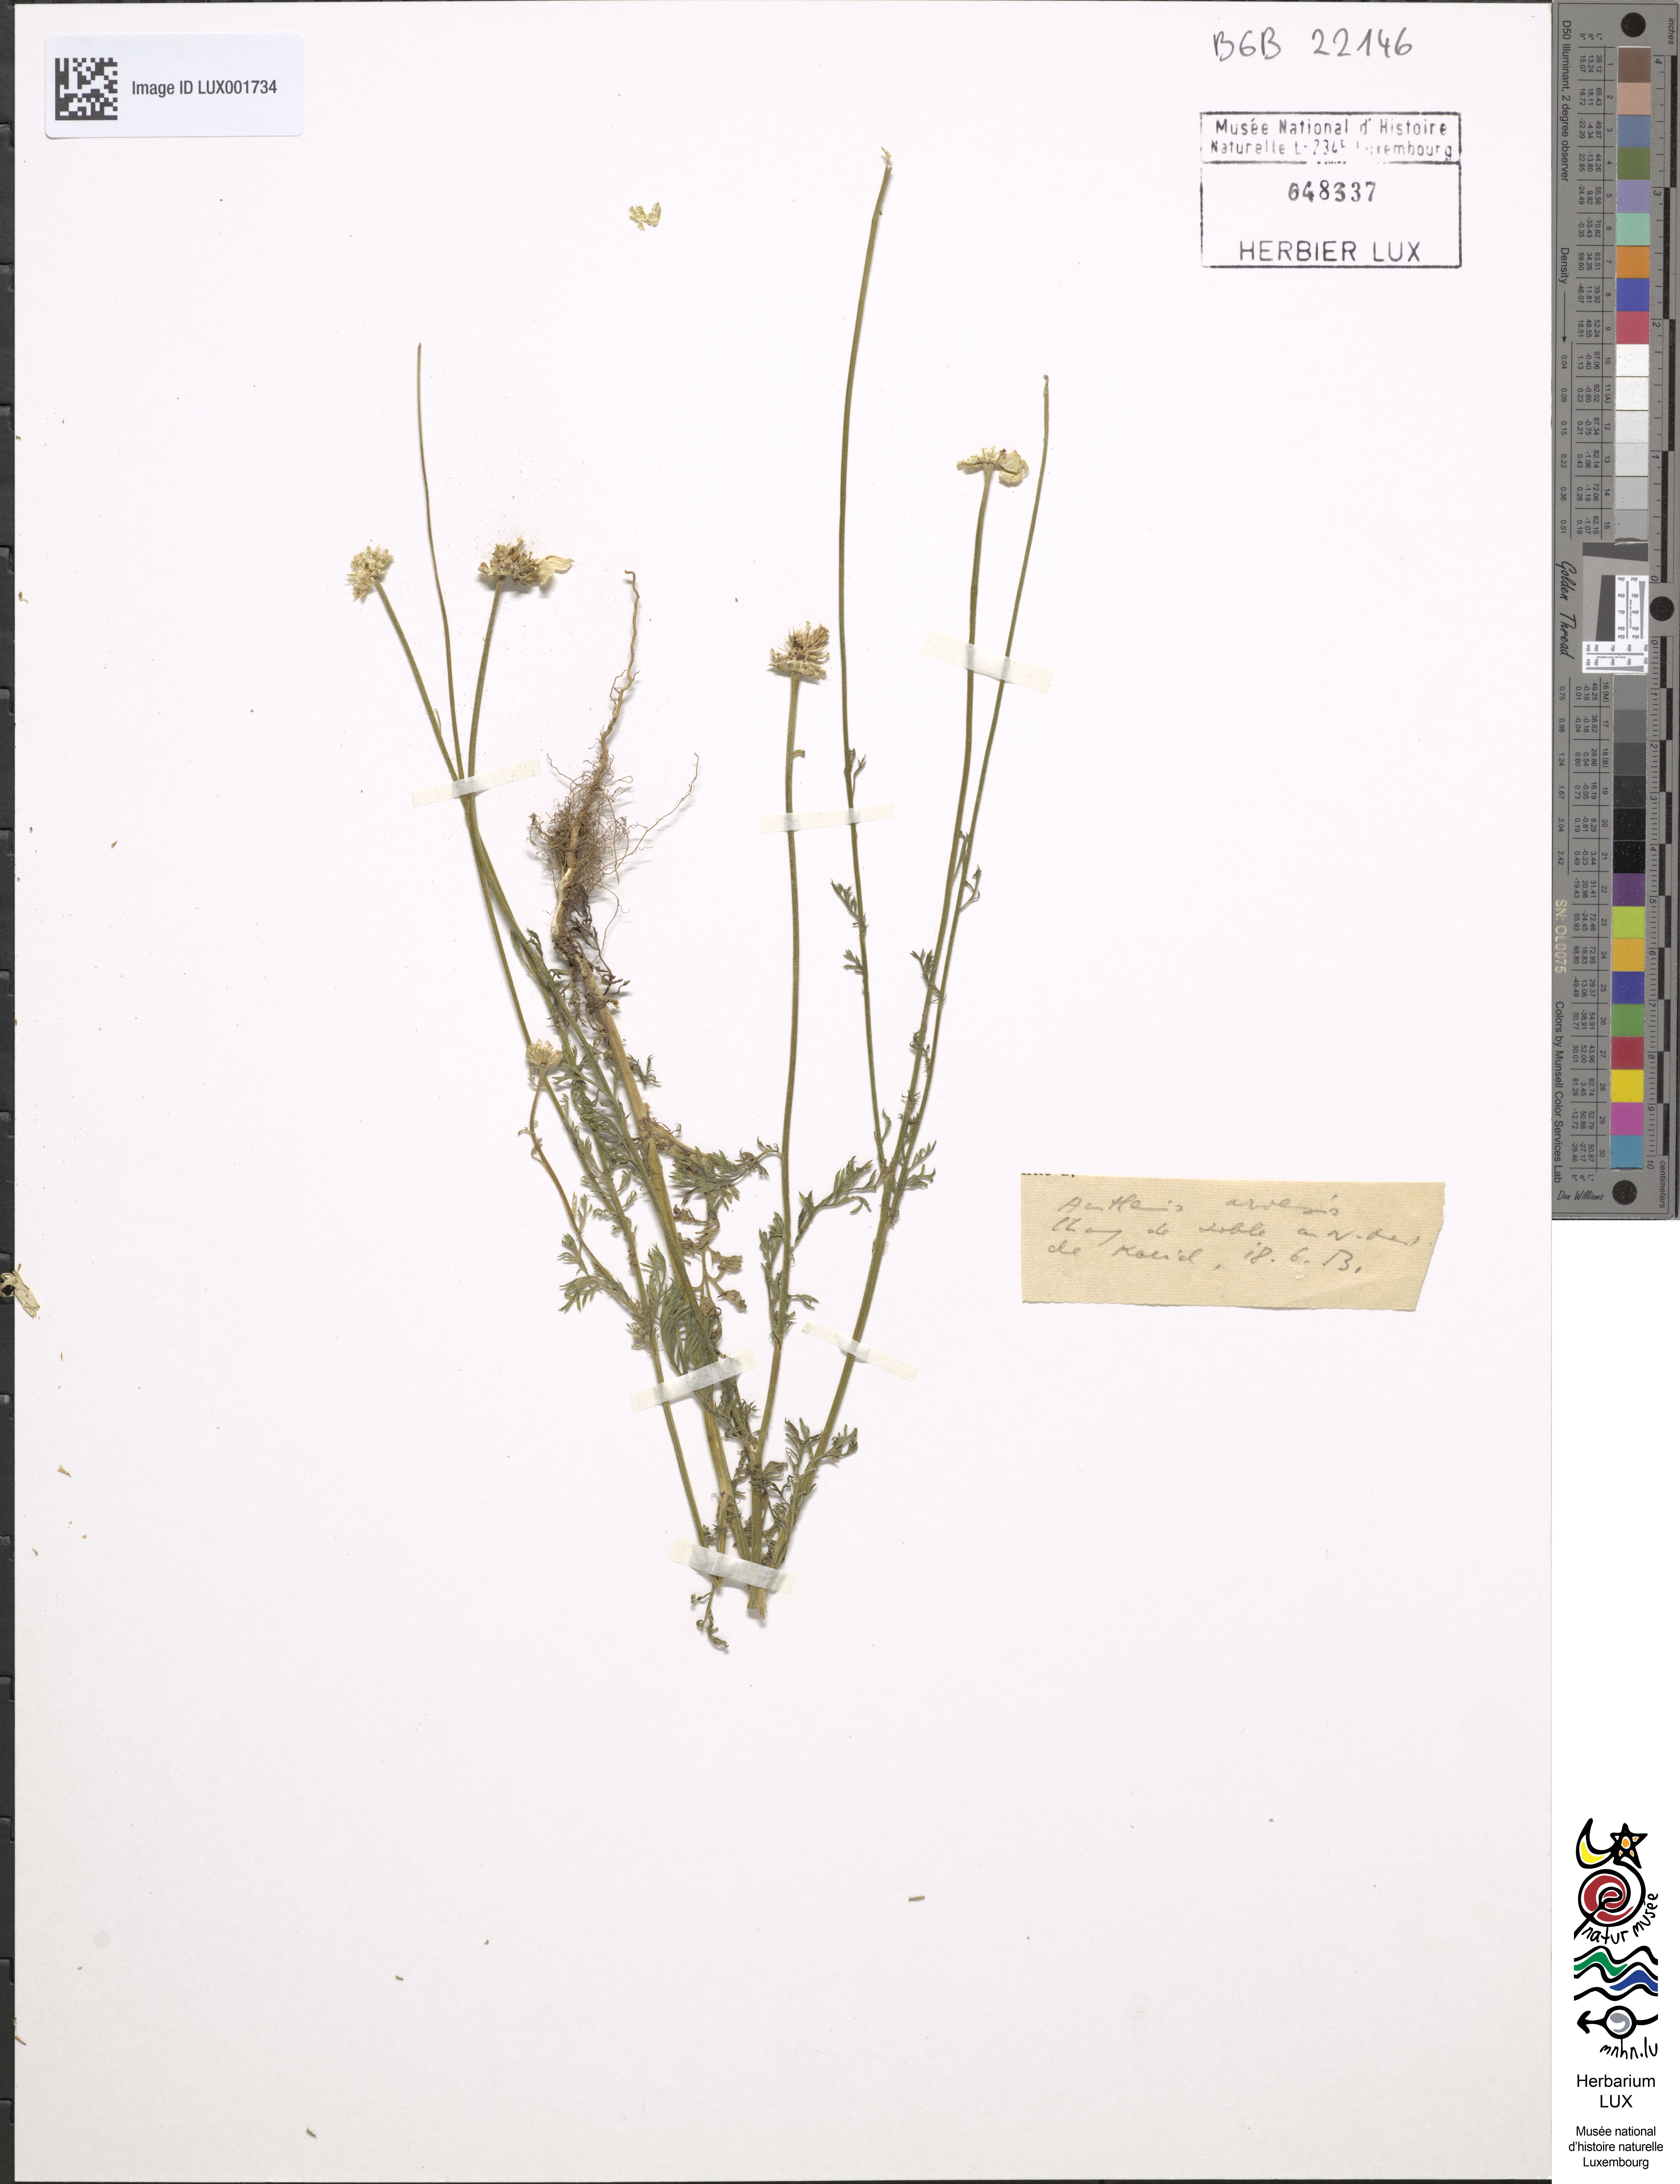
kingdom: Plantae
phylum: Tracheophyta
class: Magnoliopsida
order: Asterales
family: Asteraceae
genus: Anthemis
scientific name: Anthemis arvensis
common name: Corn chamomile
